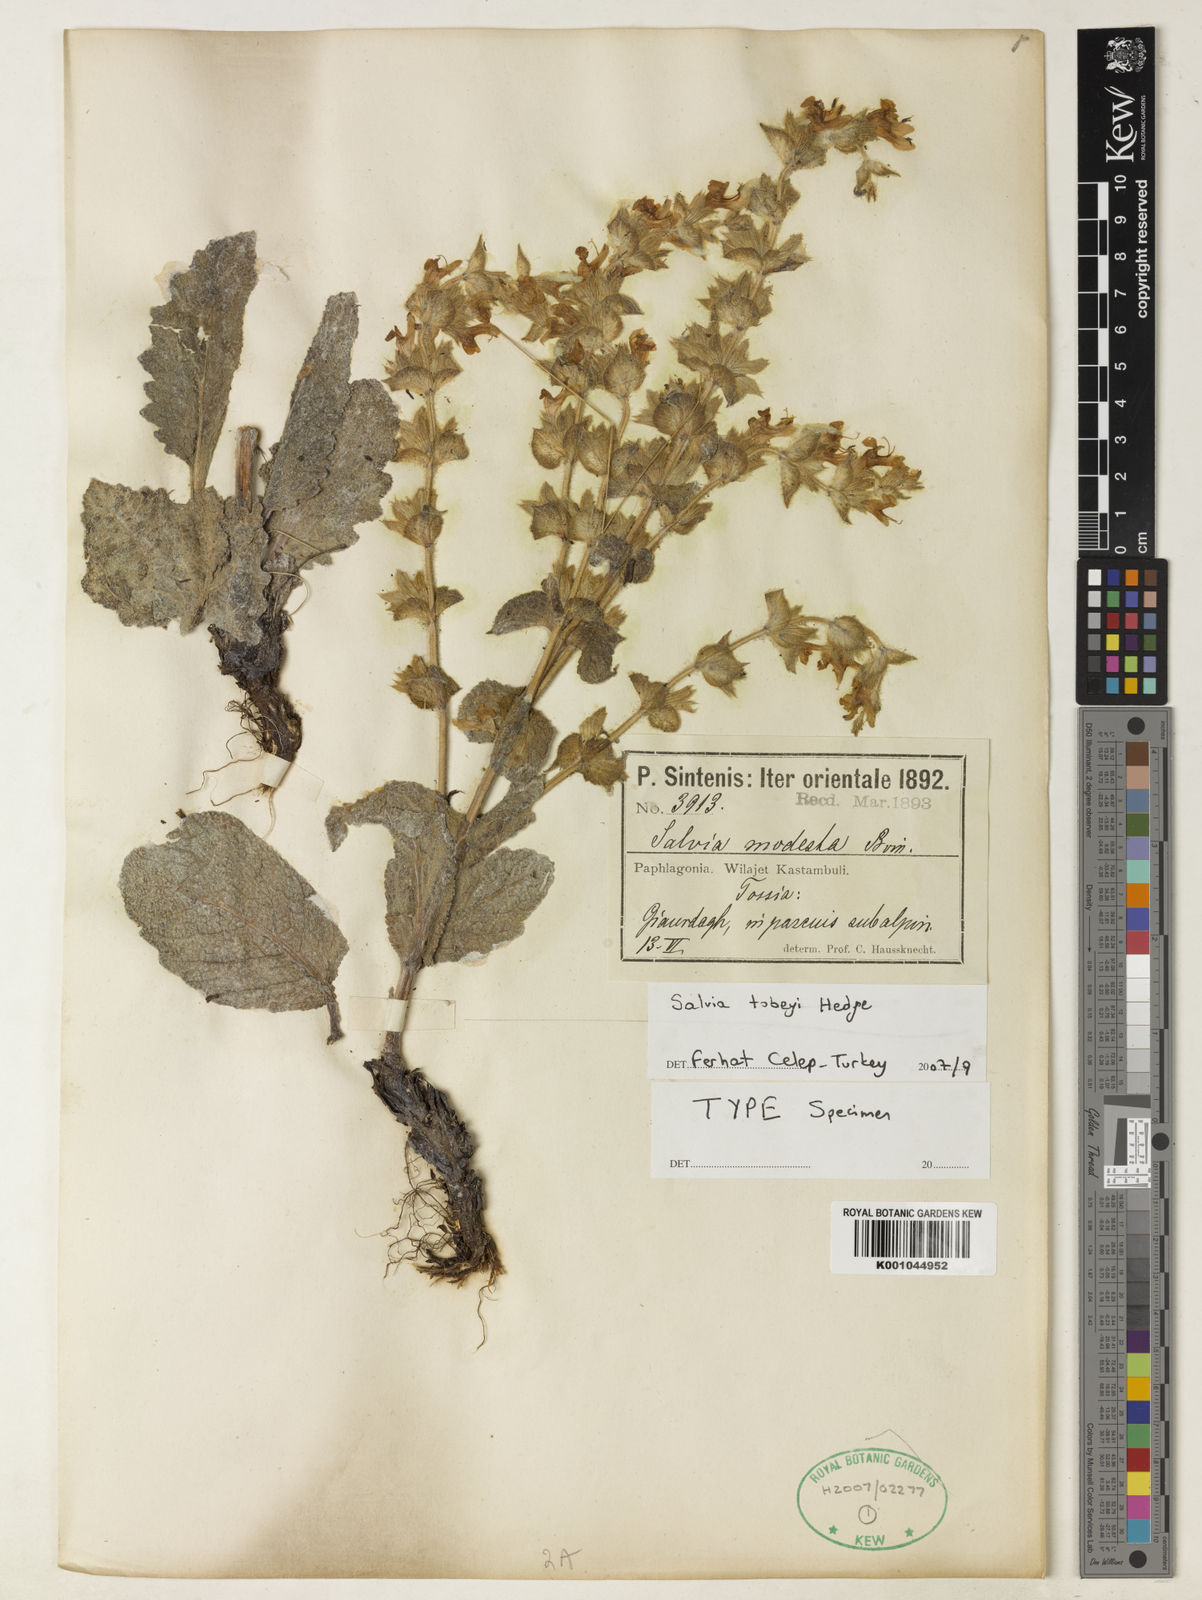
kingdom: Plantae
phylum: Tracheophyta
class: Magnoliopsida
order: Lamiales
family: Lamiaceae
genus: Salvia
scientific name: Salvia tobeyi
